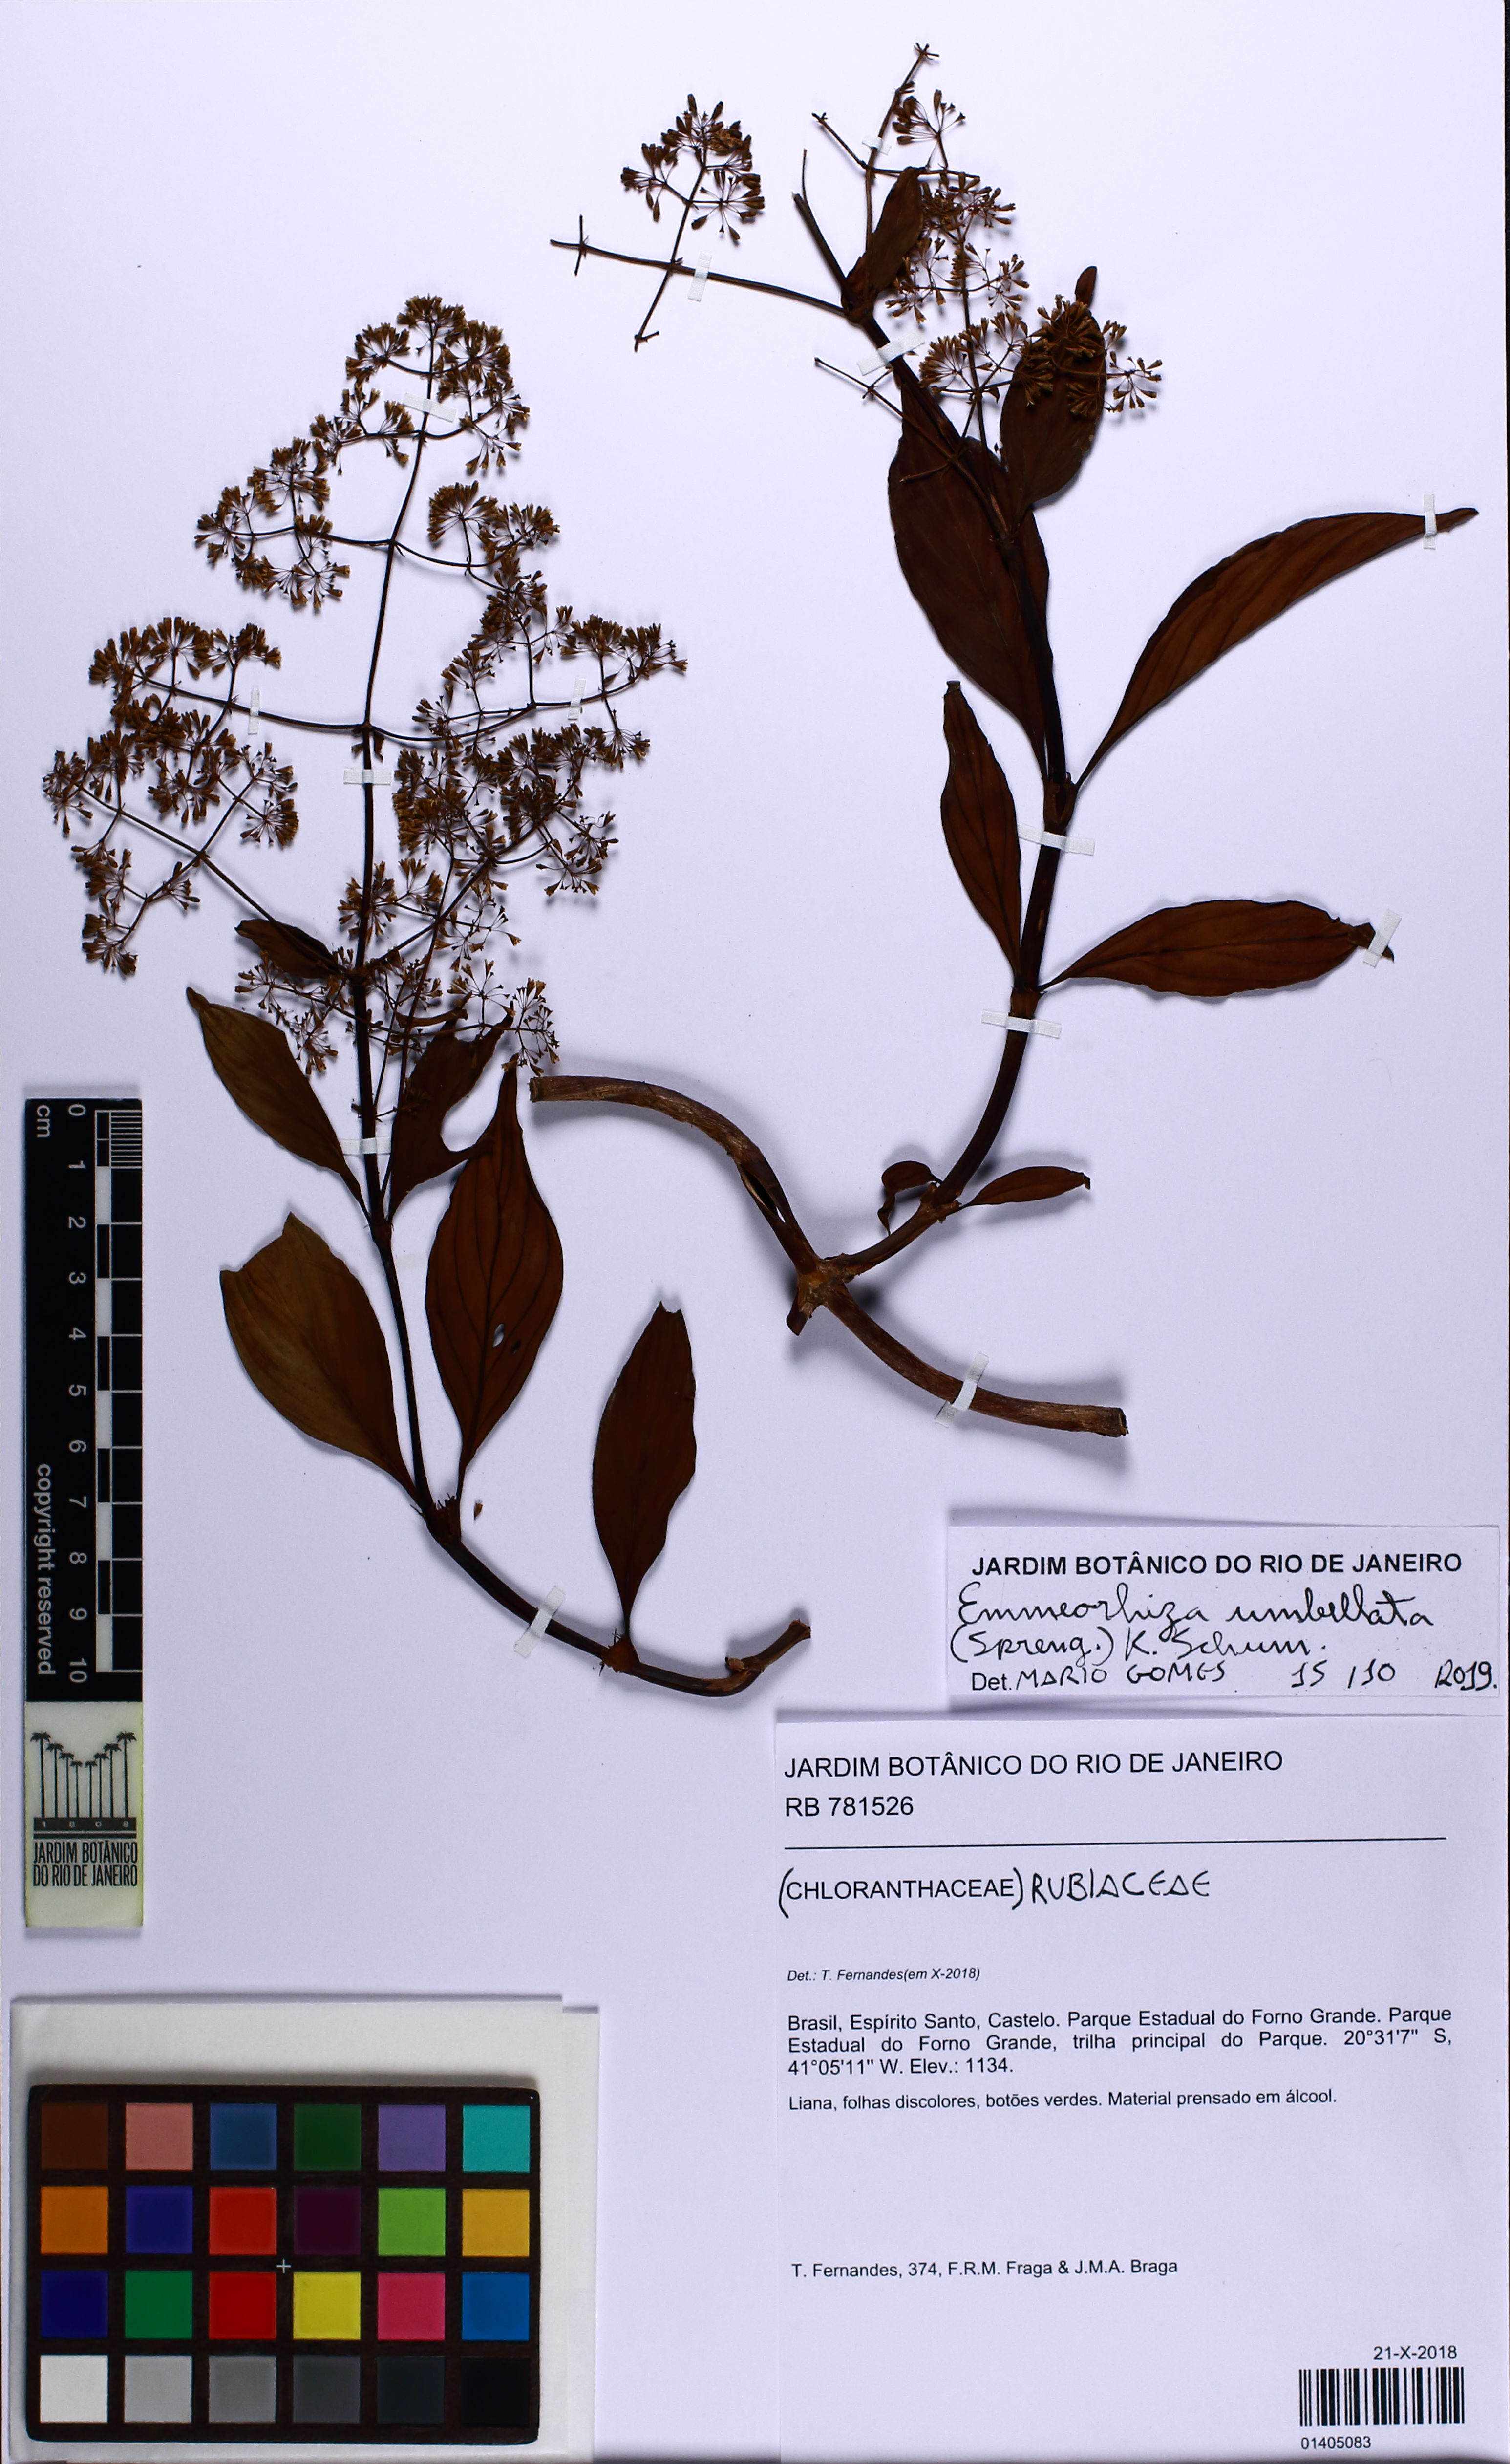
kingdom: Plantae
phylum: Tracheophyta
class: Magnoliopsida
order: Gentianales
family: Rubiaceae
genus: Emmeorhiza
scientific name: Emmeorhiza umbellata
